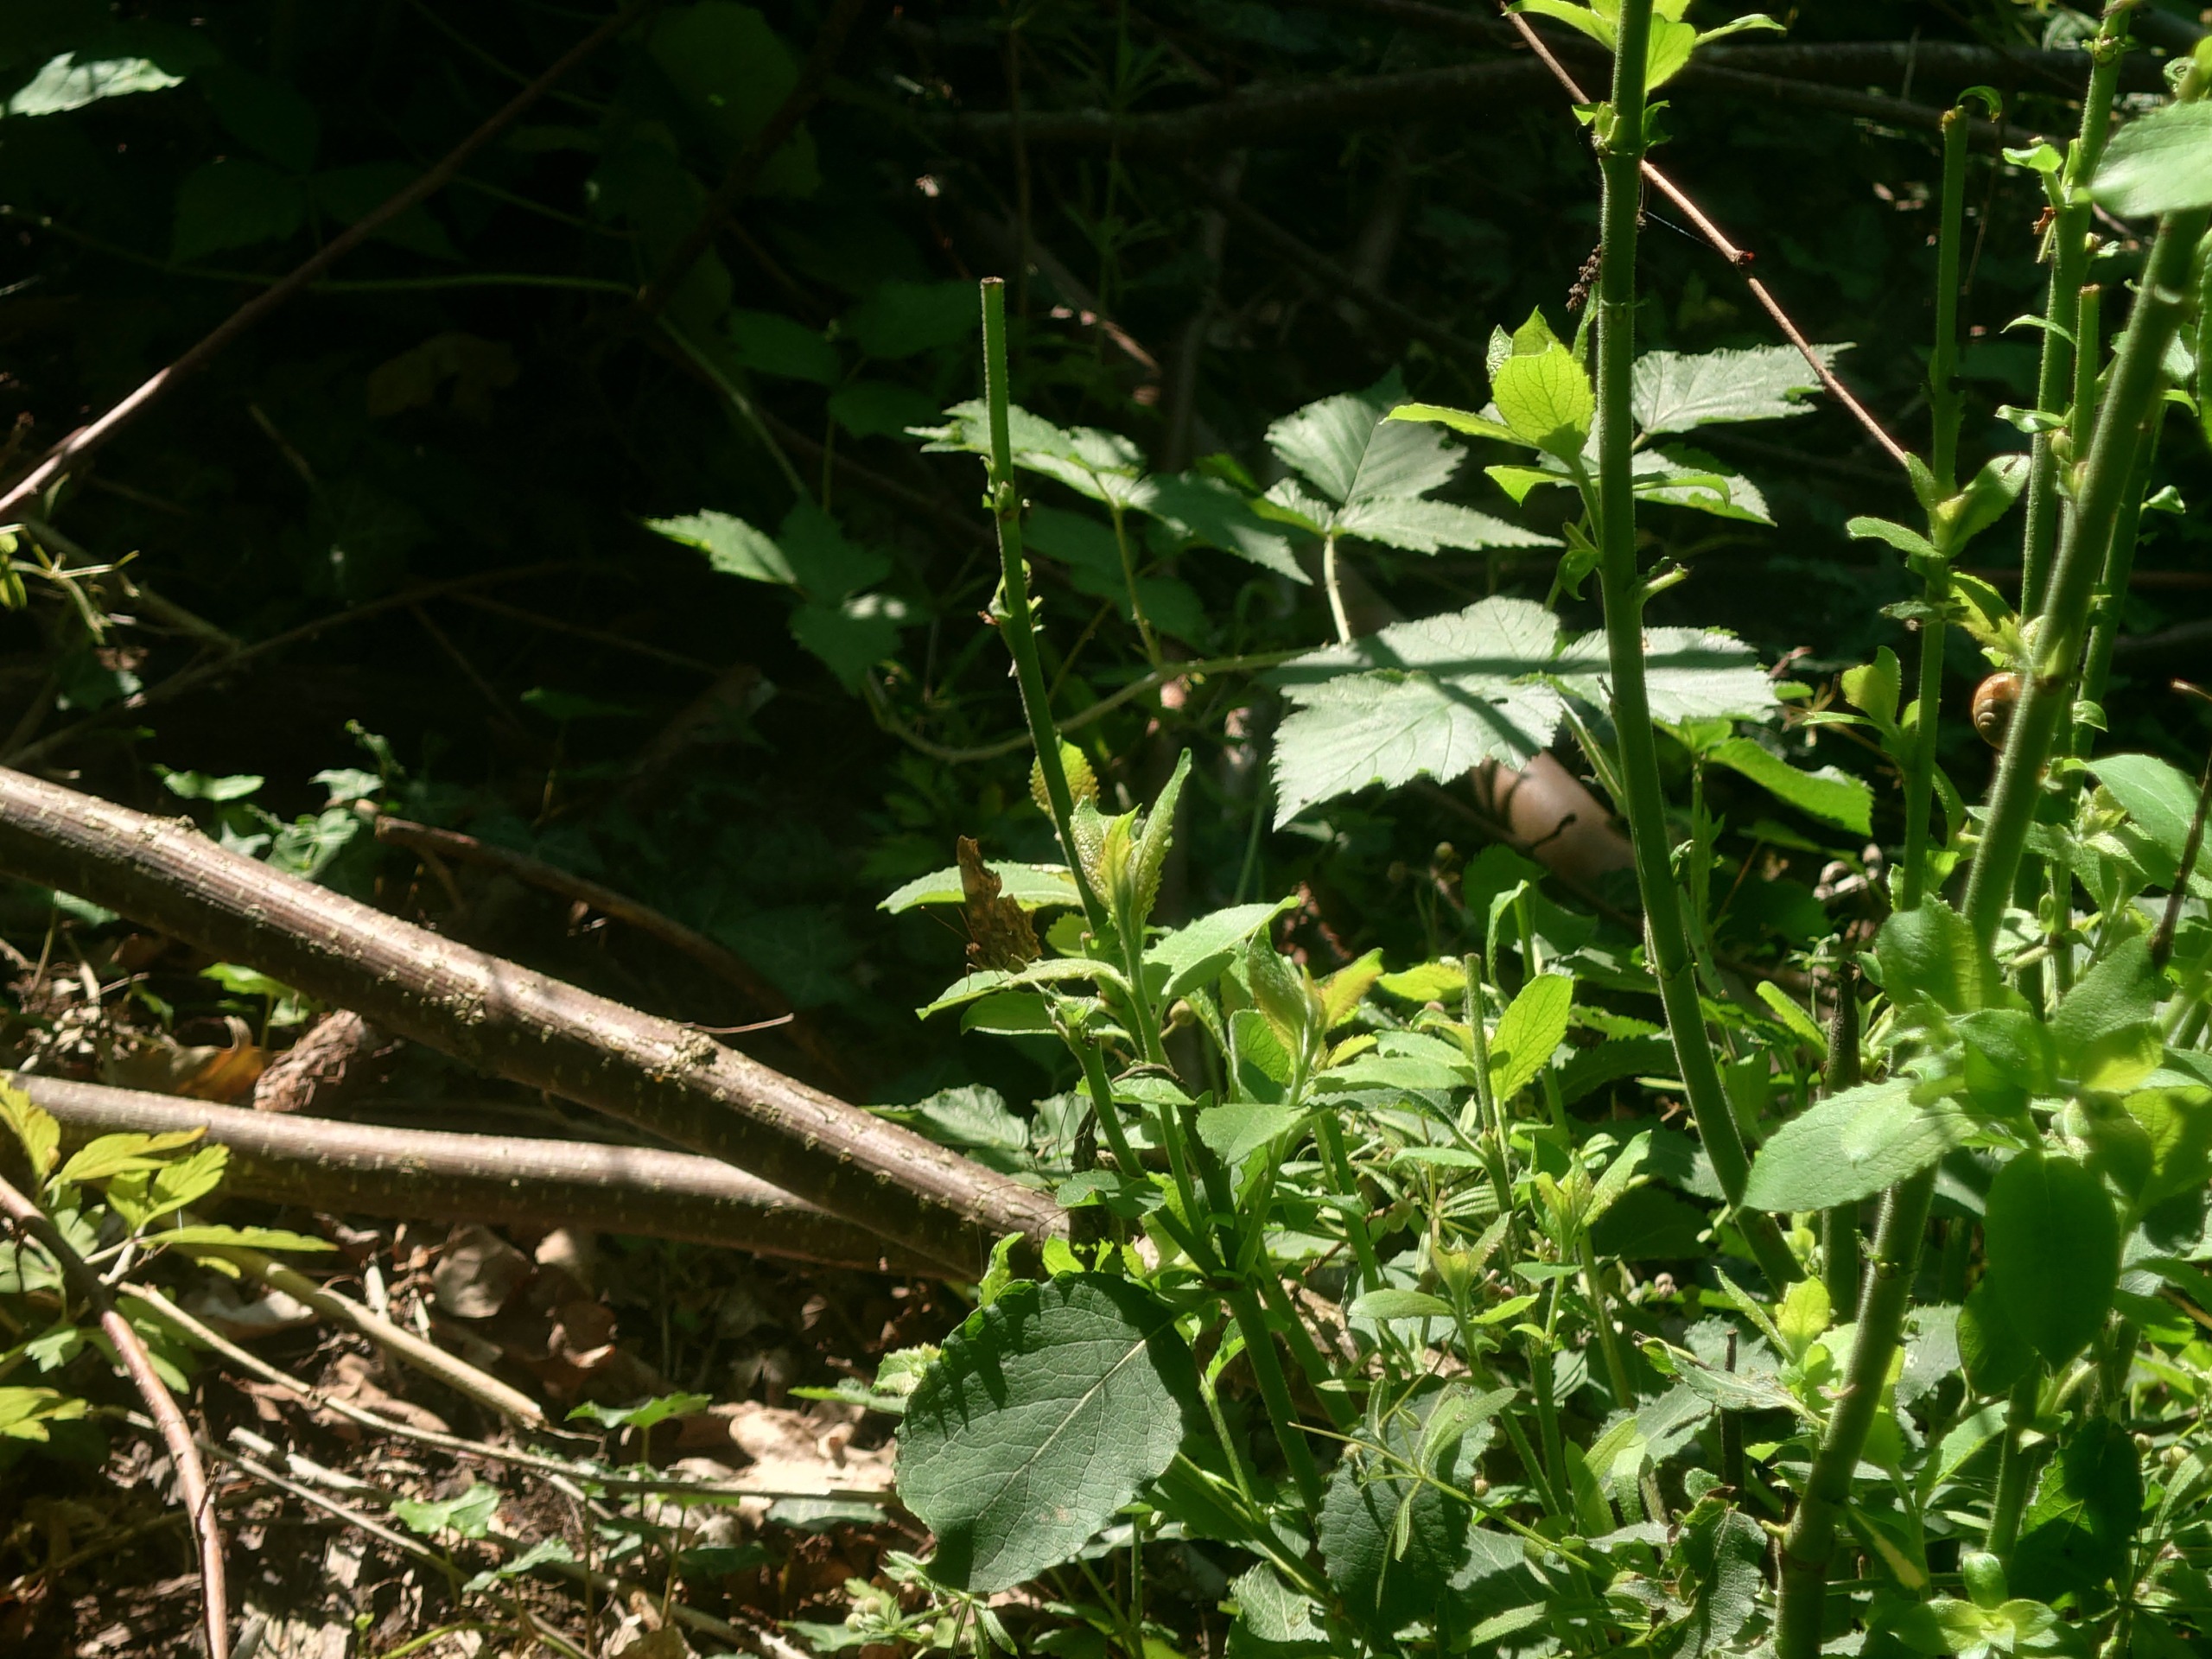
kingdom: Animalia
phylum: Arthropoda
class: Insecta
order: Lepidoptera
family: Nymphalidae
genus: Polygonia
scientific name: Polygonia c-album
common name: Det hvide C
